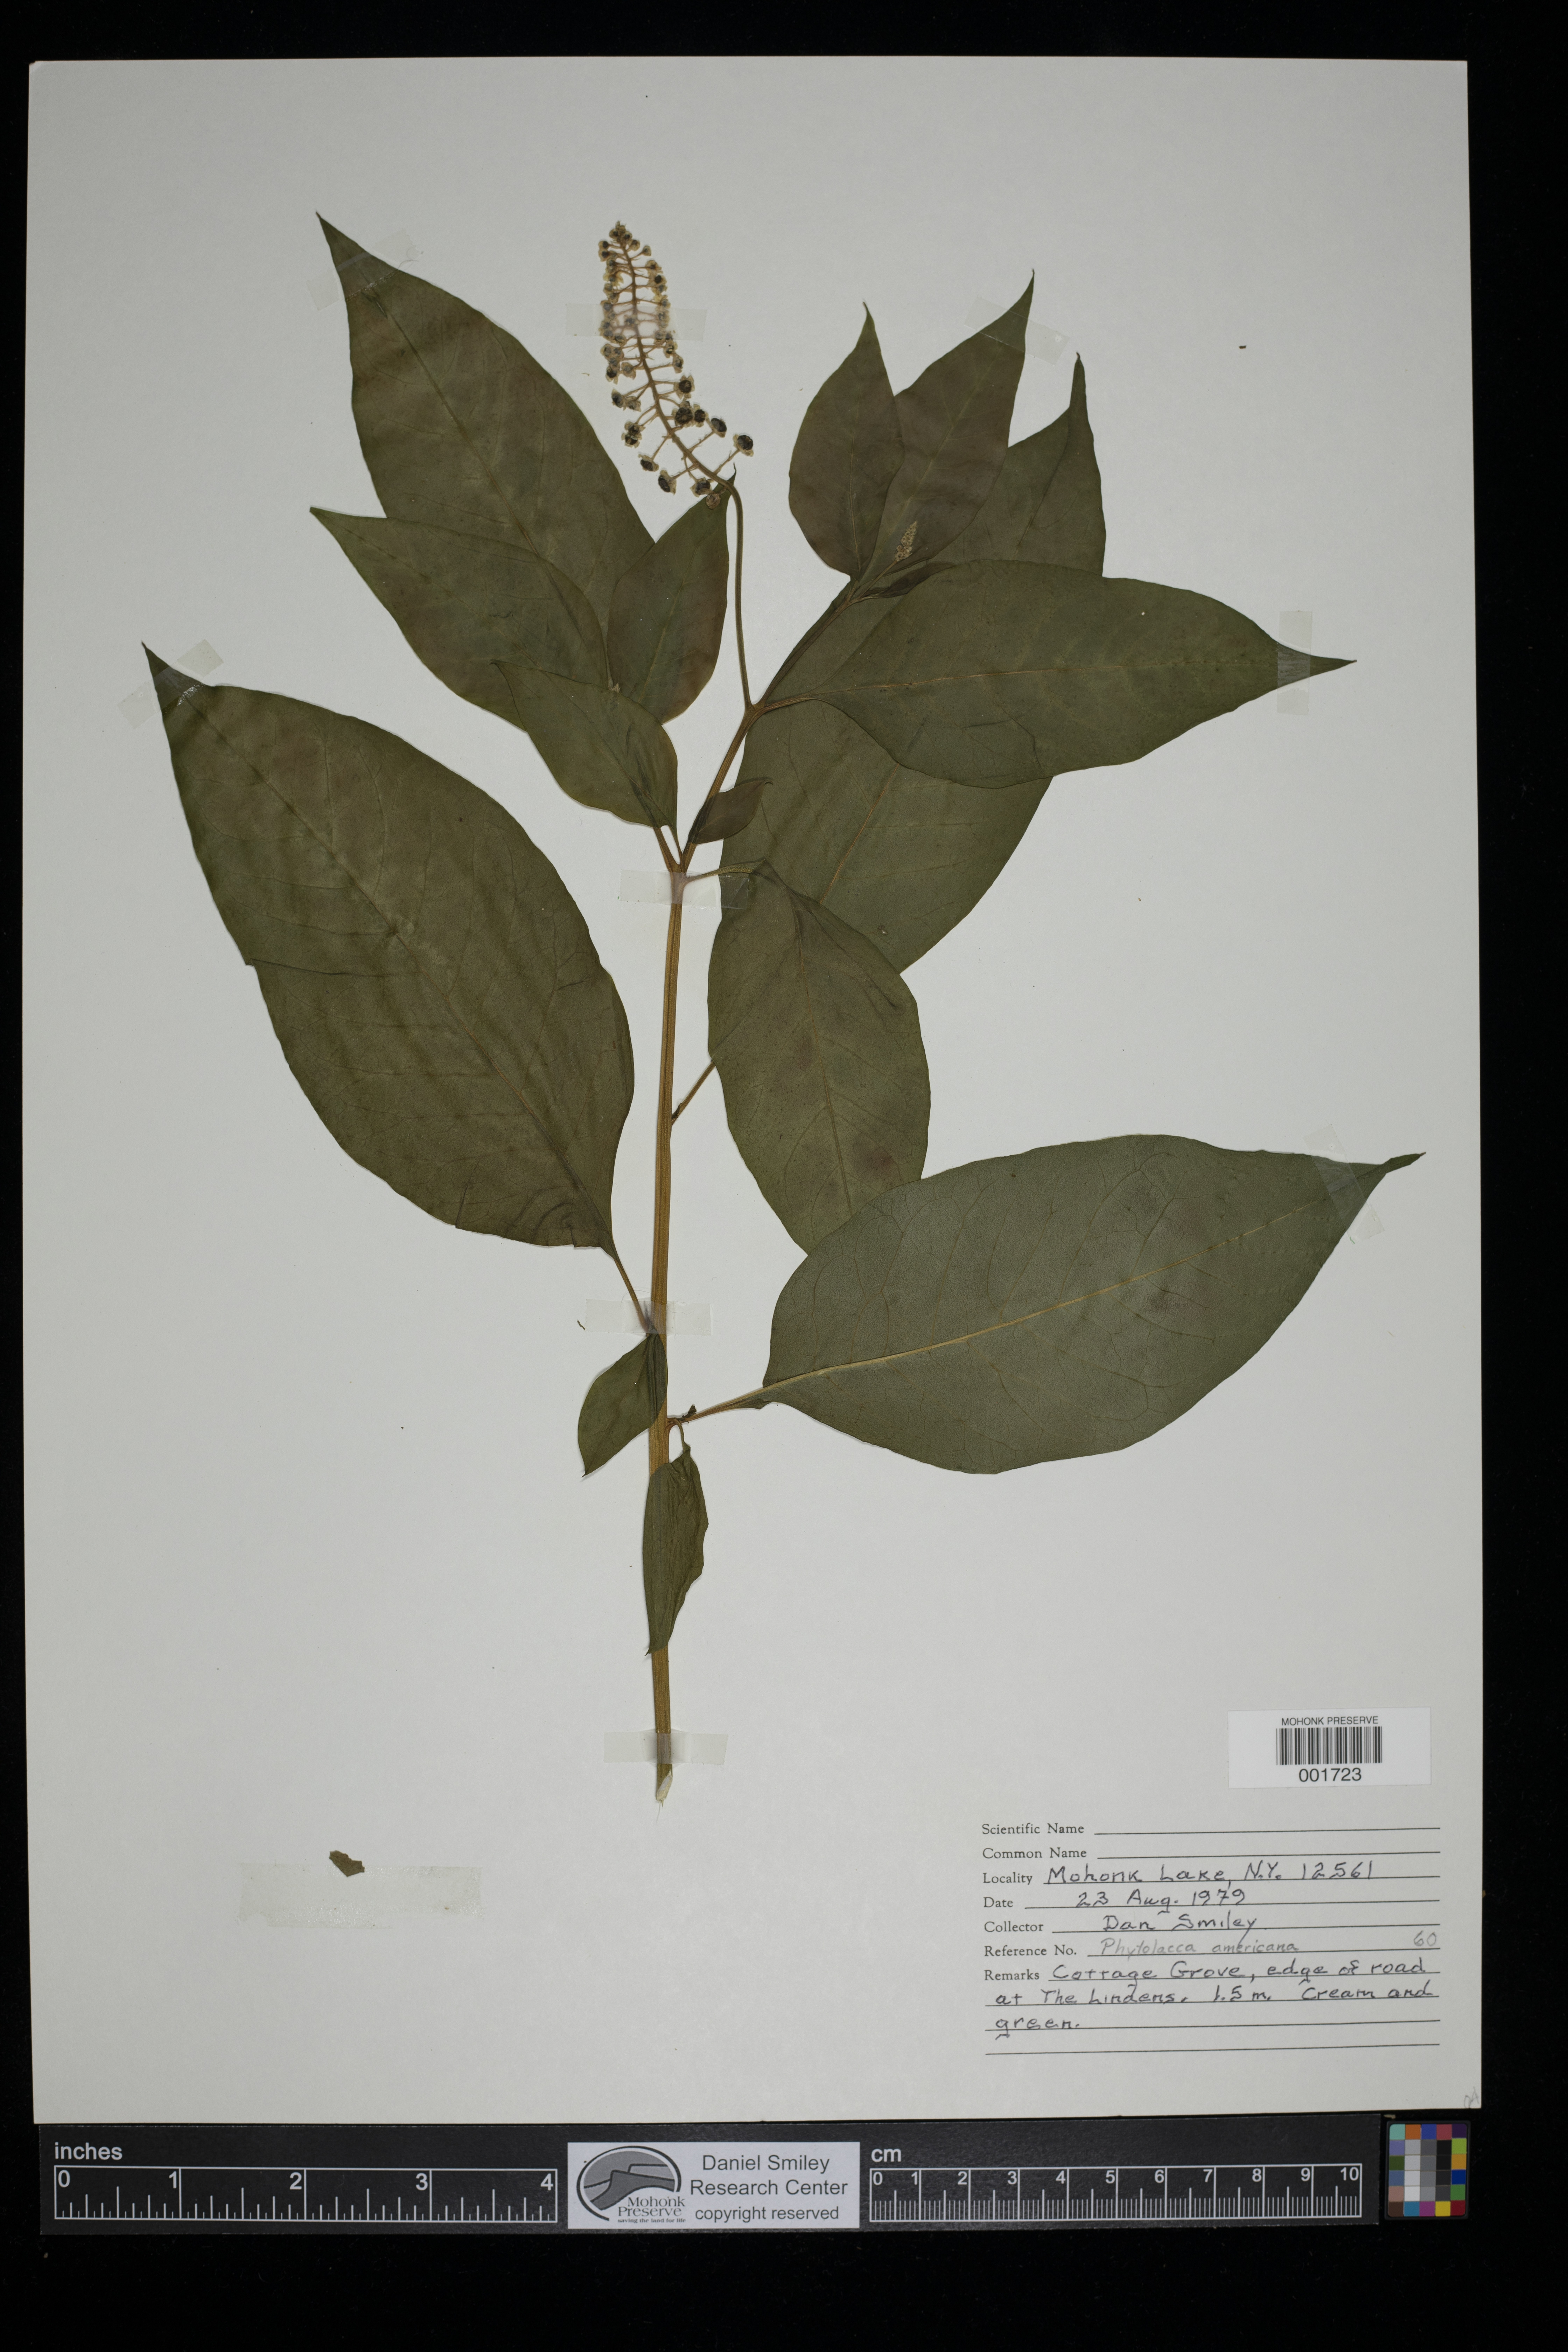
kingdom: Plantae
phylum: Tracheophyta
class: Magnoliopsida
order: Caryophyllales
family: Phytolaccaceae
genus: Phytolacca
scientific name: Phytolacca americana
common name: American pokeweed
